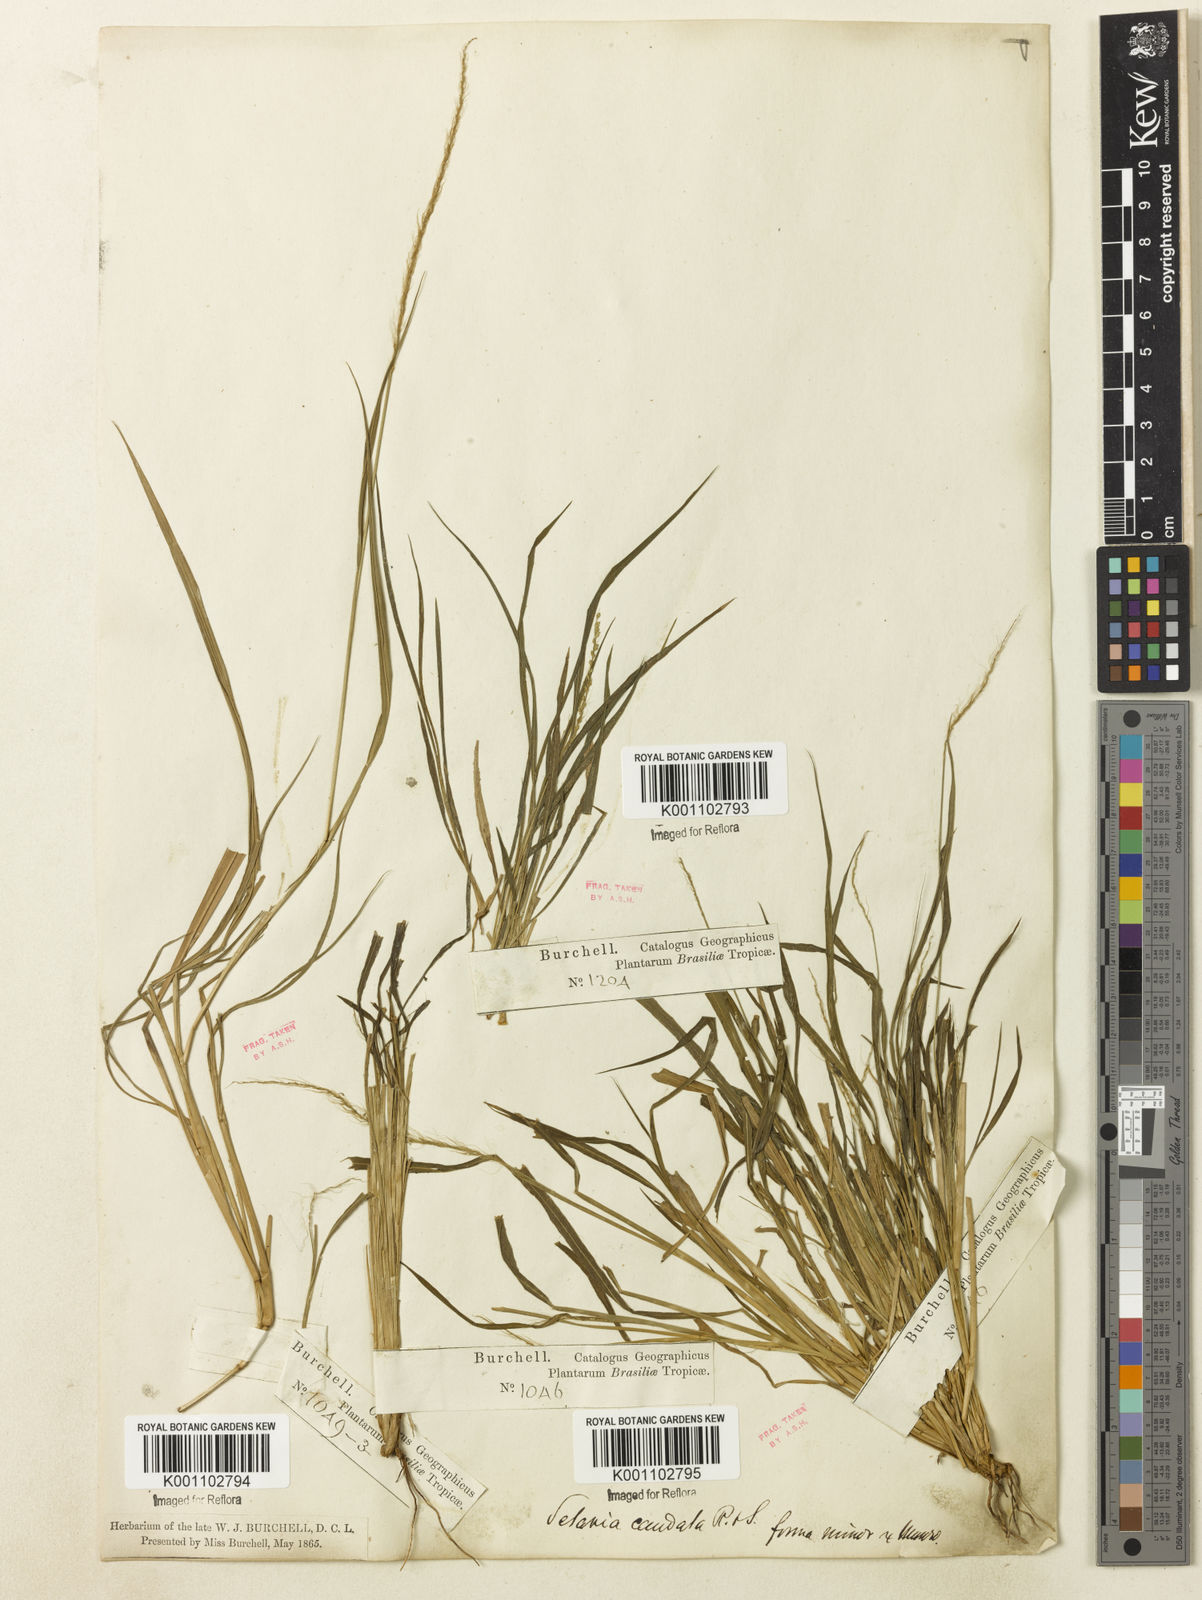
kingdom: Plantae
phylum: Tracheophyta
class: Liliopsida
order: Poales
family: Poaceae
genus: Setaria
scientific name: Setaria setosa
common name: West indies bristle grass
